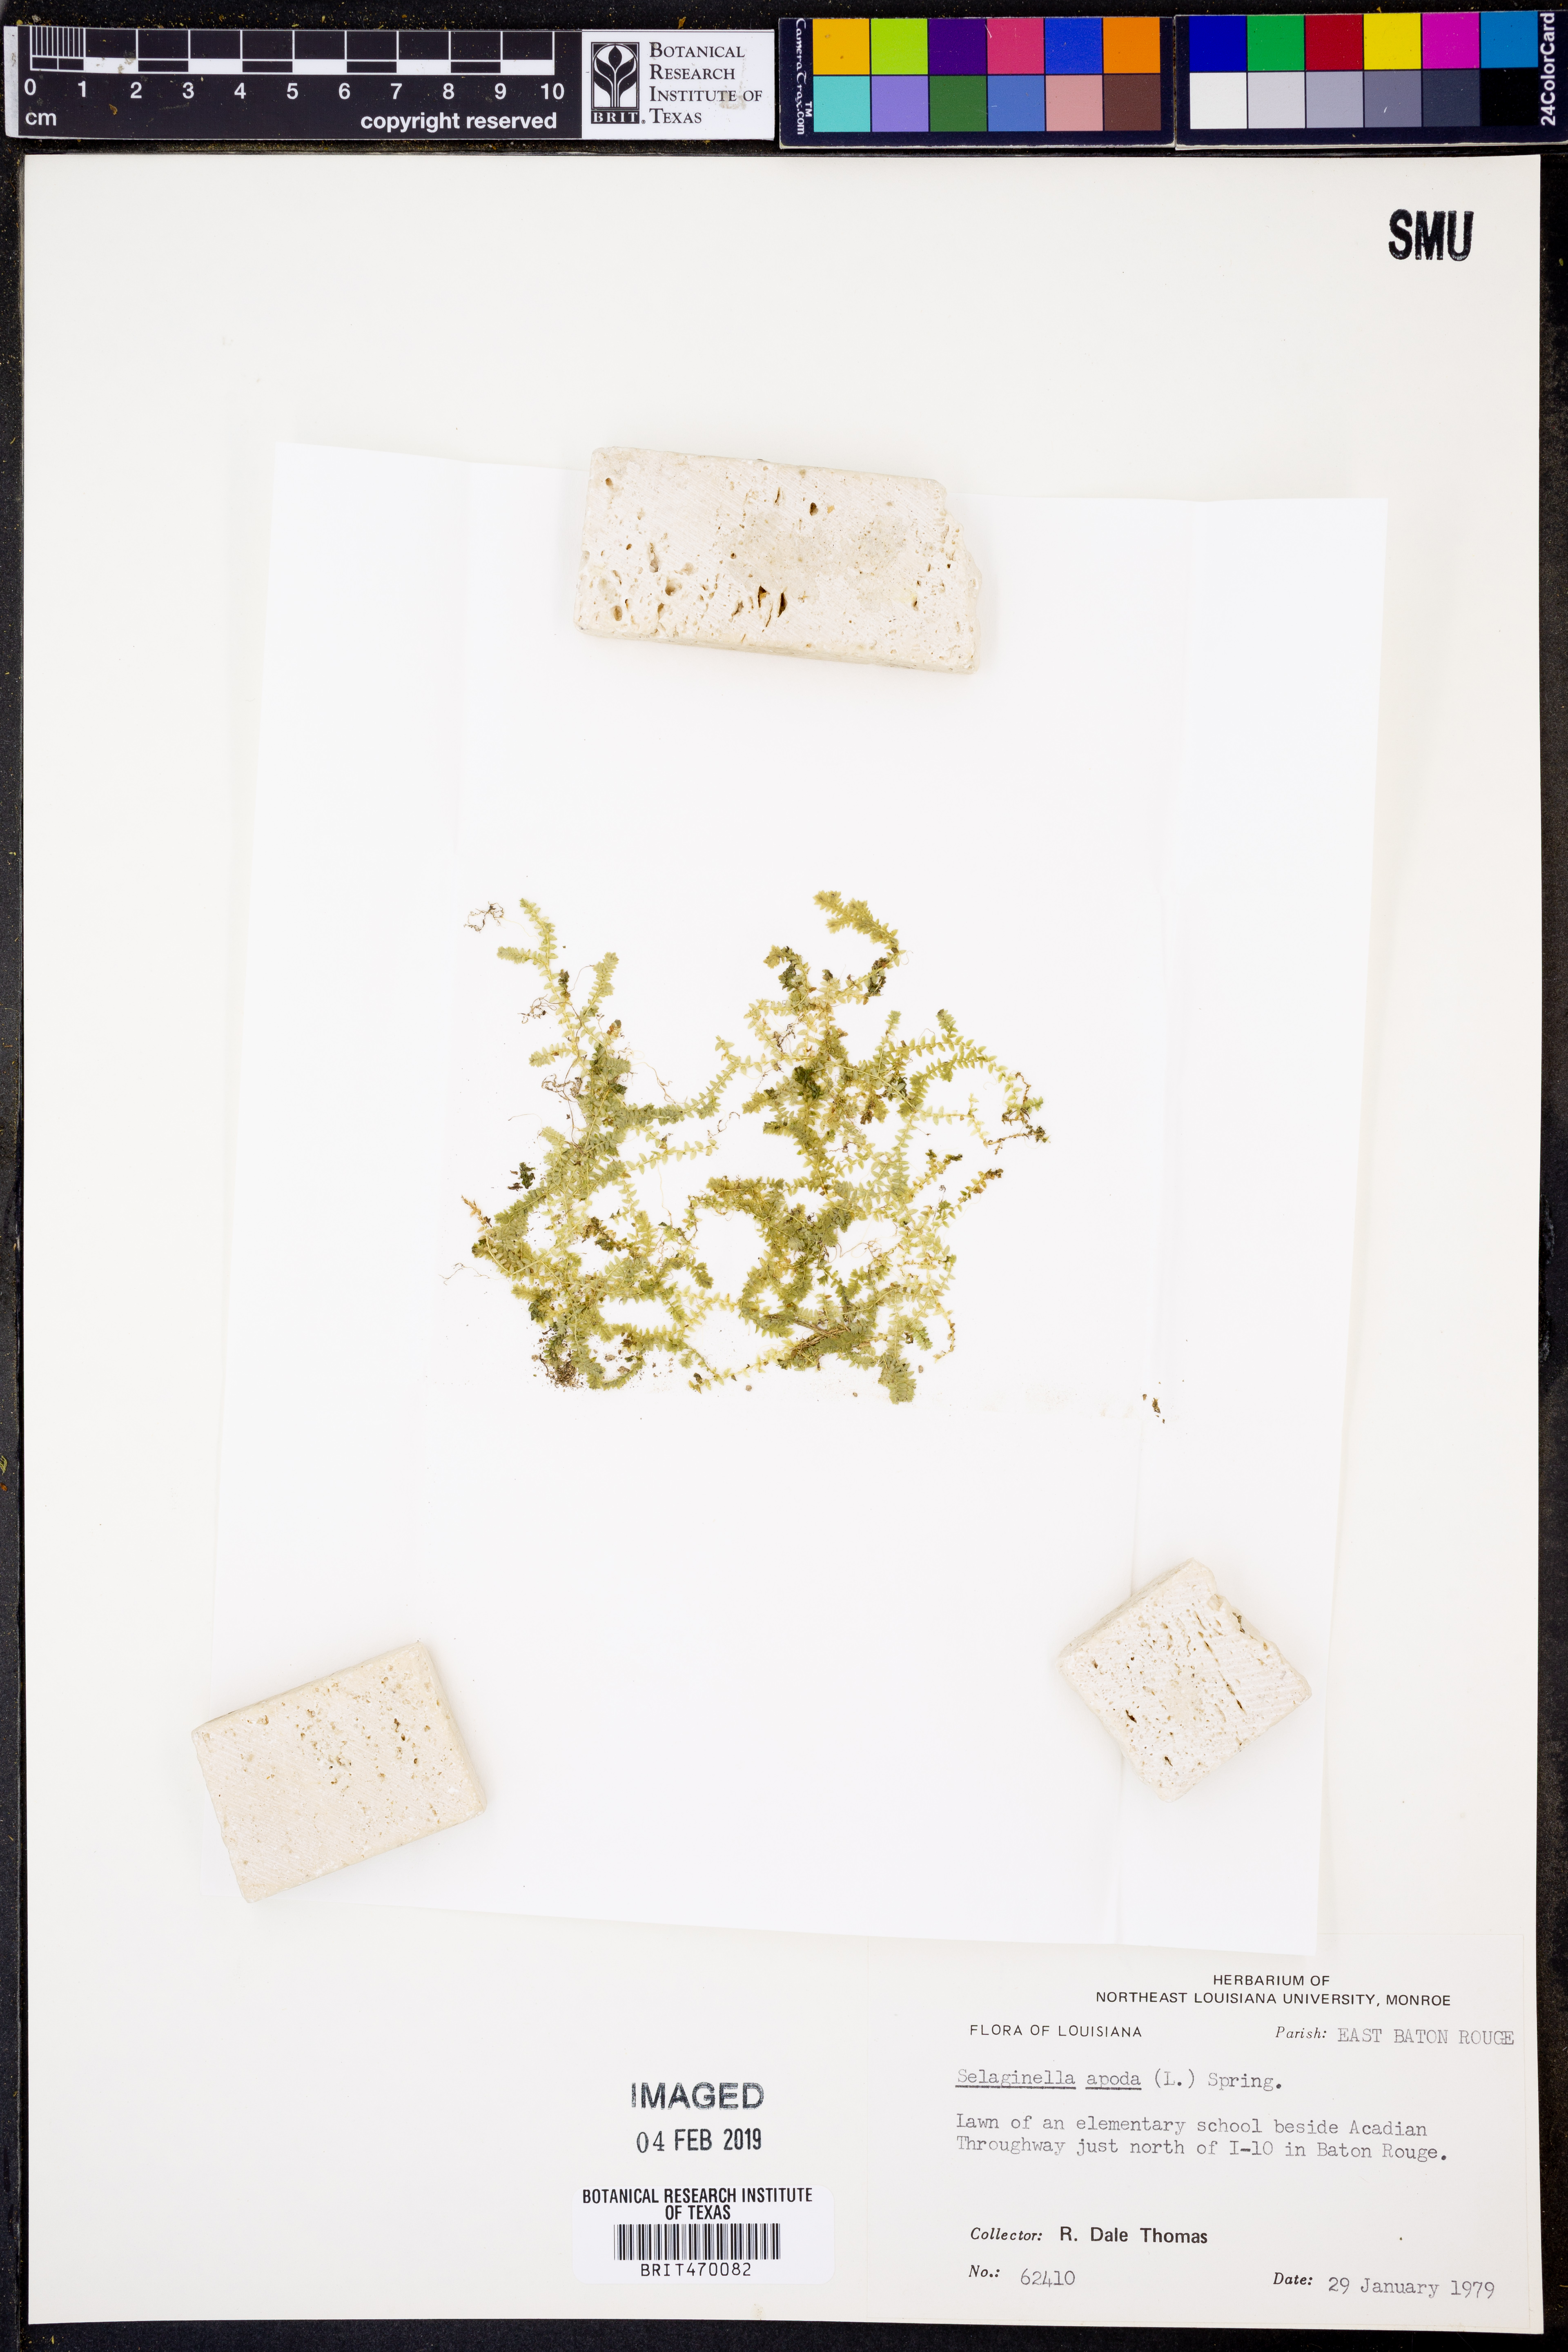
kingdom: Plantae
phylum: Tracheophyta
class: Lycopodiopsida
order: Selaginellales
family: Selaginellaceae
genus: Selaginella
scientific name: Selaginella apoda
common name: Creeping spikemoss
